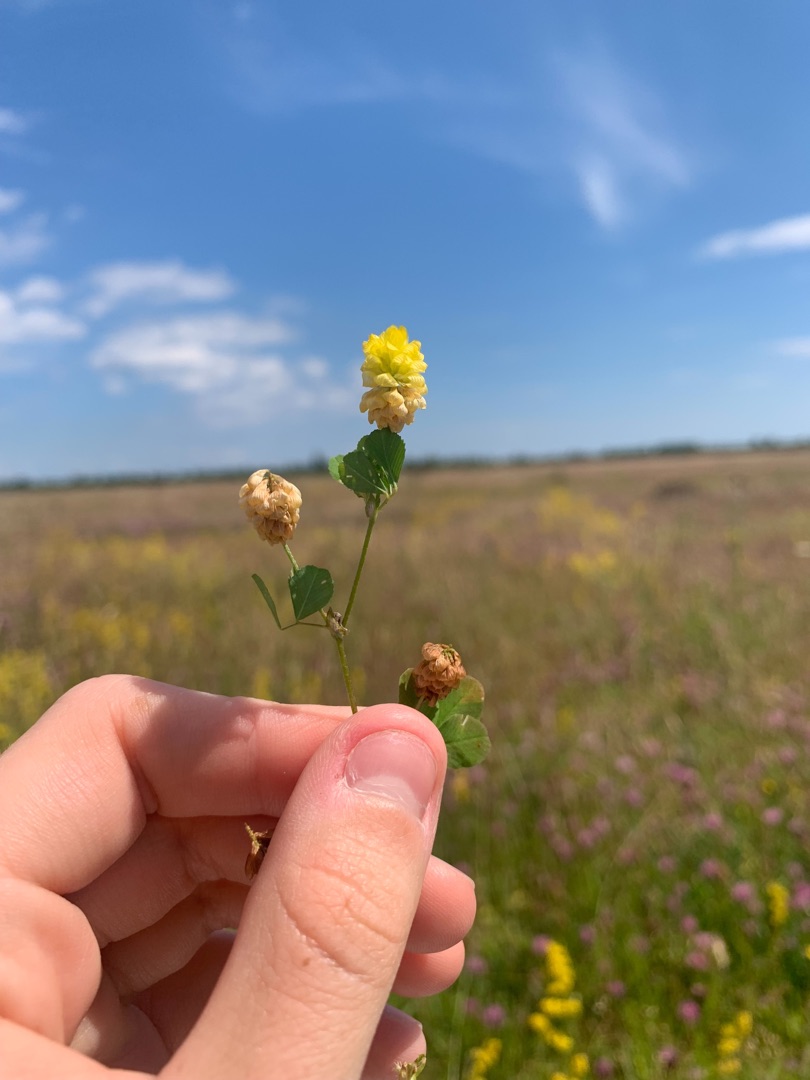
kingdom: Plantae
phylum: Tracheophyta
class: Magnoliopsida
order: Fabales
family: Fabaceae
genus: Trifolium
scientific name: Trifolium campestre
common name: Gul kløver
